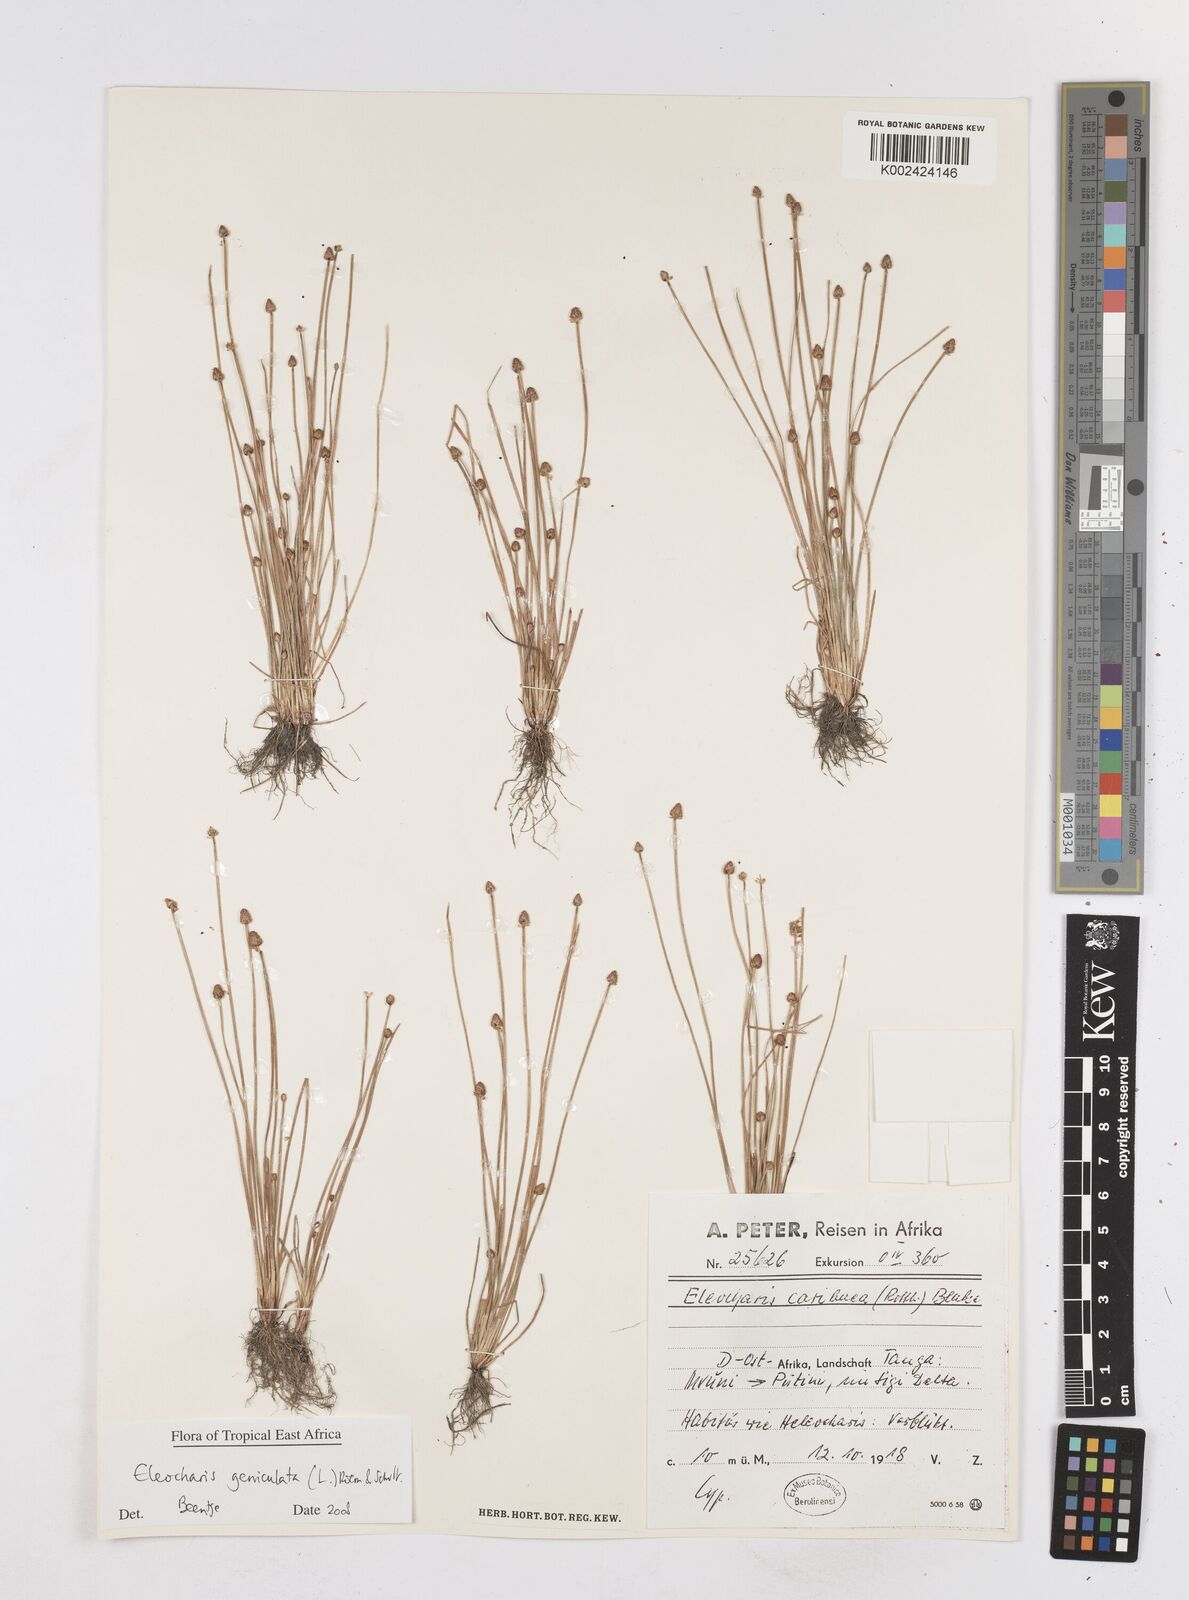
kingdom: Plantae
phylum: Tracheophyta
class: Liliopsida
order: Poales
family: Cyperaceae
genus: Eleocharis
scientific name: Eleocharis geniculata
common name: Canada spikesedge
